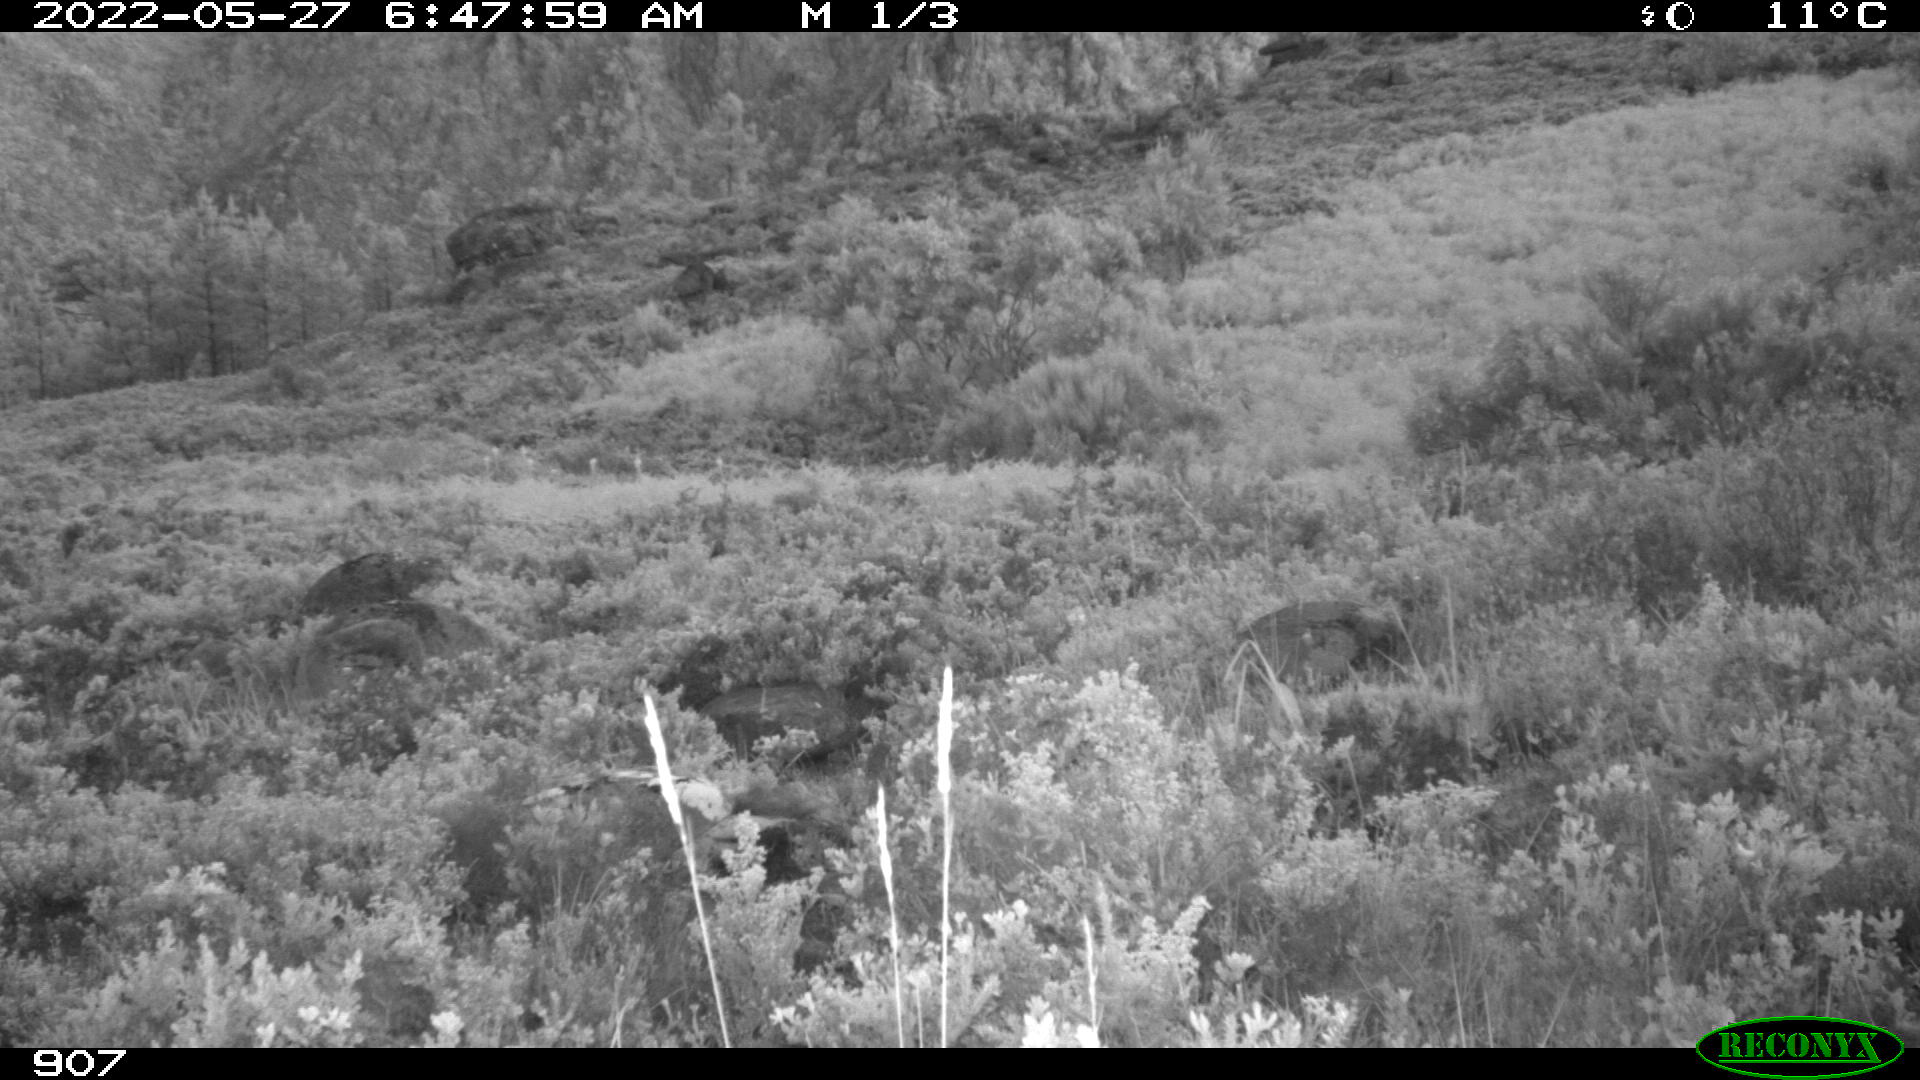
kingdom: Animalia
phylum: Chordata
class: Mammalia
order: Artiodactyla
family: Bovidae
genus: Bos
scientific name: Bos taurus
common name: Domesticated cattle
